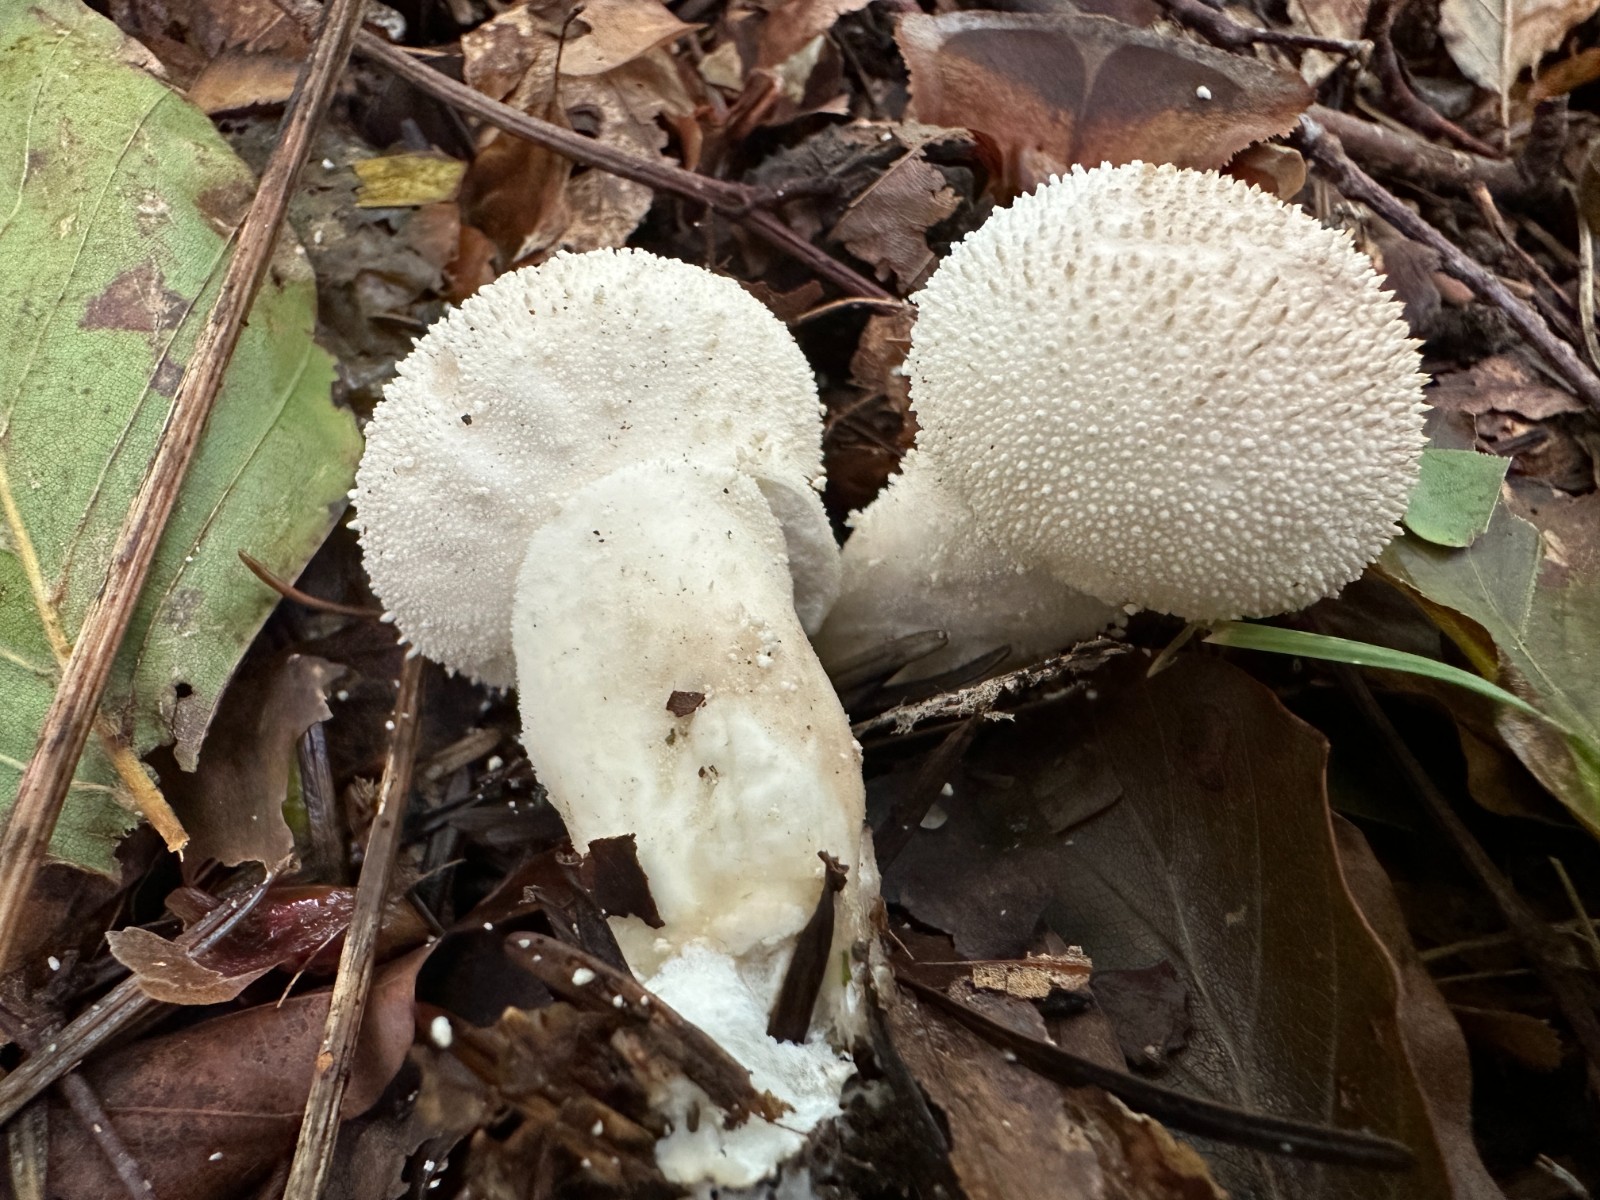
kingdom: Fungi
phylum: Basidiomycota
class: Agaricomycetes
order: Agaricales
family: Lycoperdaceae
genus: Lycoperdon
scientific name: Lycoperdon perlatum
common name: krystal-støvbold
